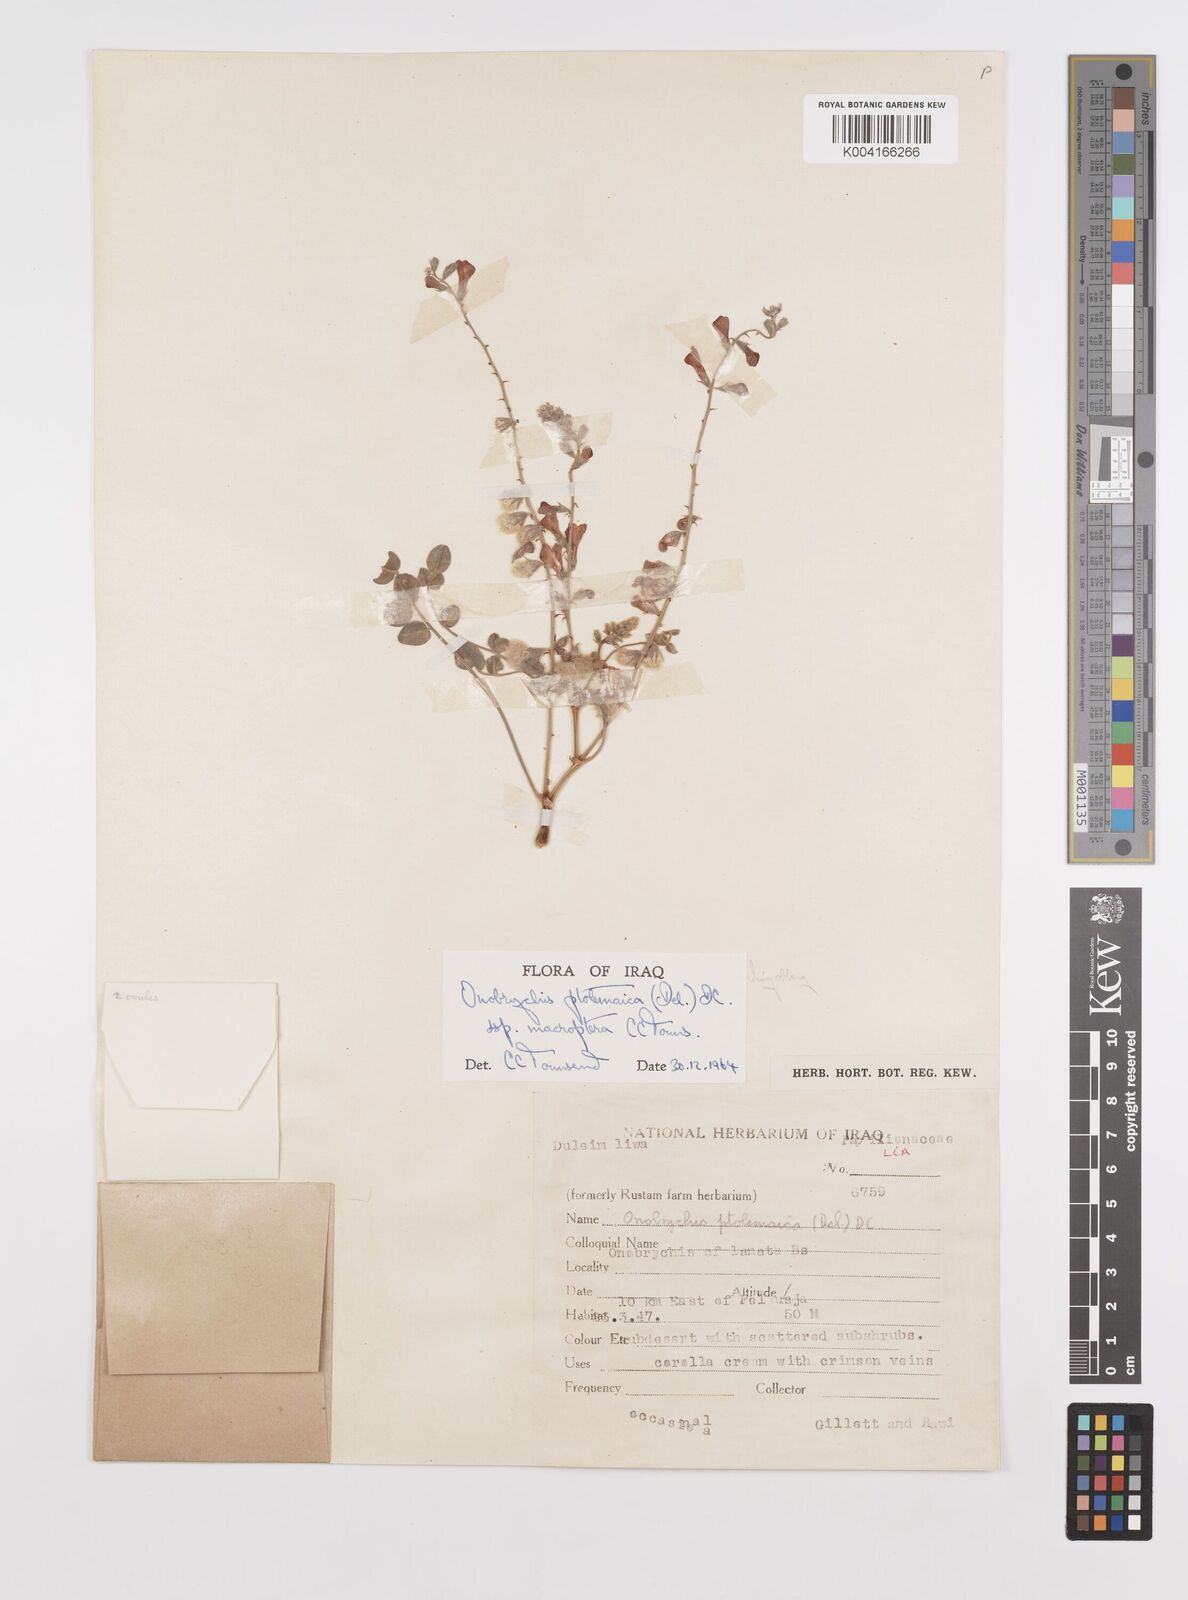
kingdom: Plantae
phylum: Tracheophyta
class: Magnoliopsida
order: Fabales
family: Fabaceae
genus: Onobrychis
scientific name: Onobrychis ptolemaica
